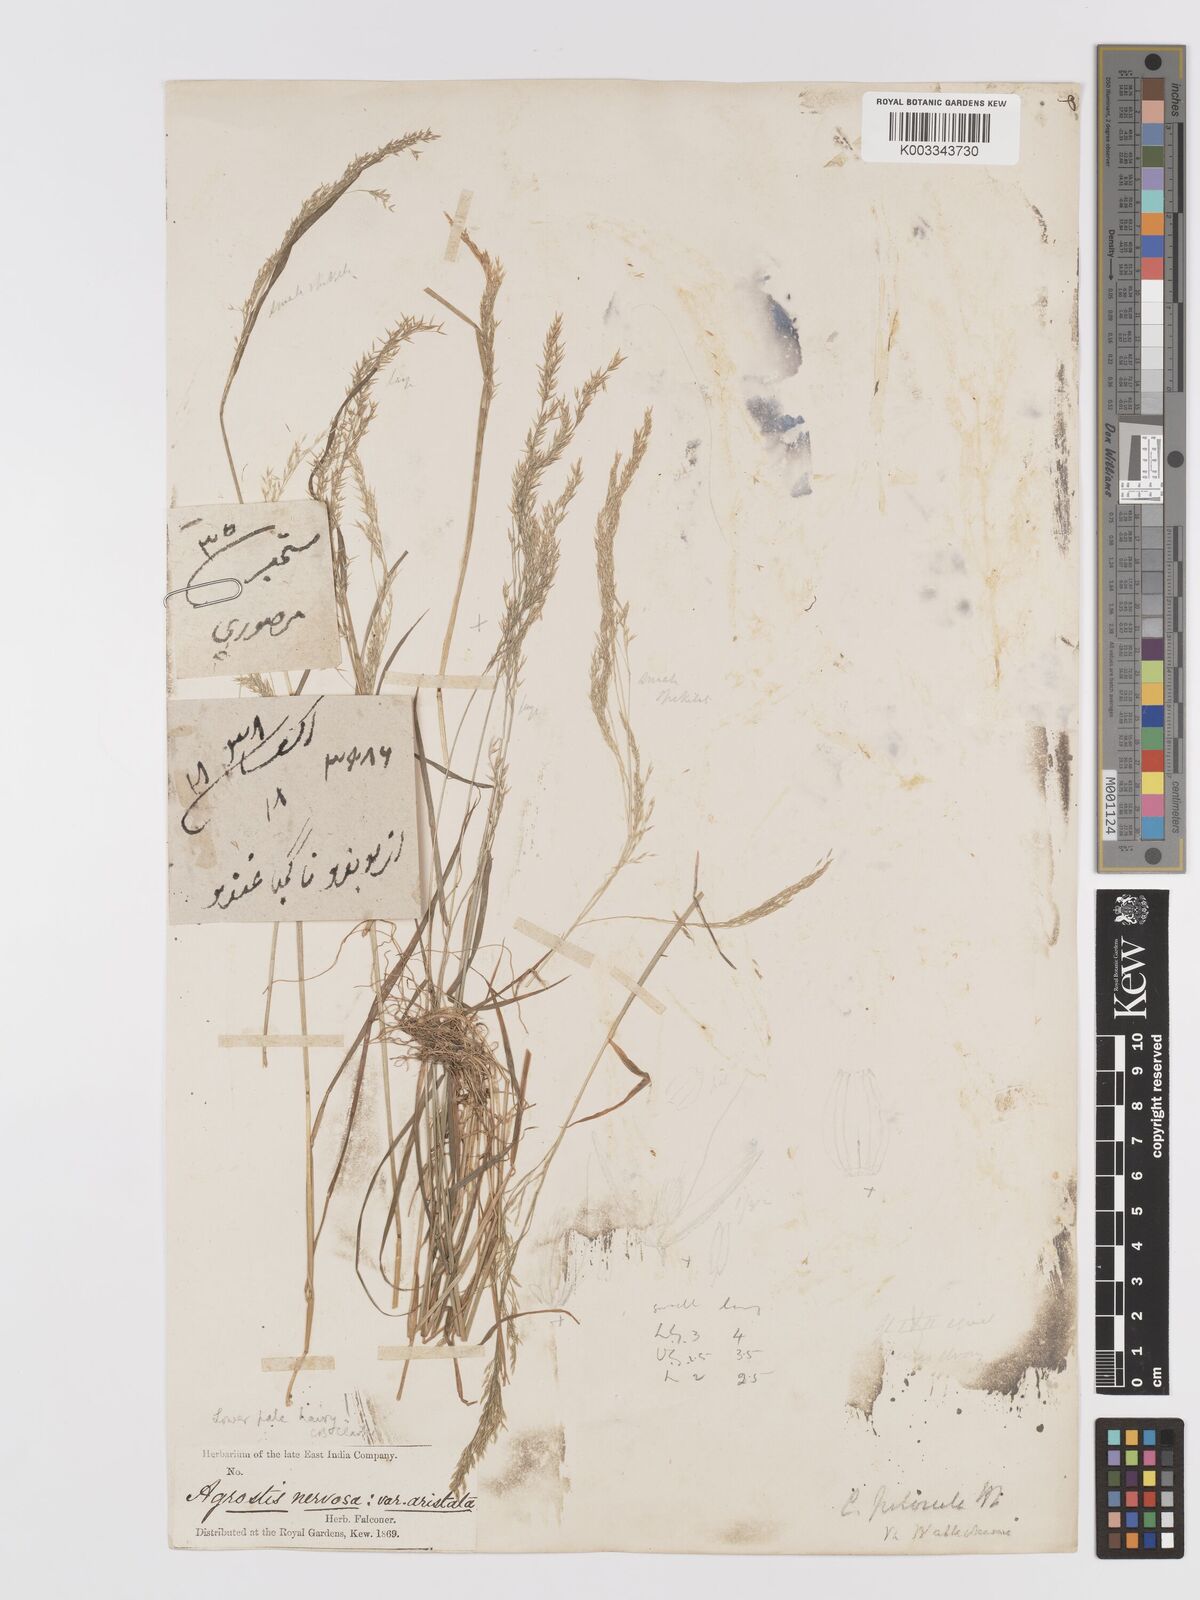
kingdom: Plantae
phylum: Tracheophyta
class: Liliopsida
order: Poales
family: Poaceae
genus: Agrostis
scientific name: Agrostis pilosula
